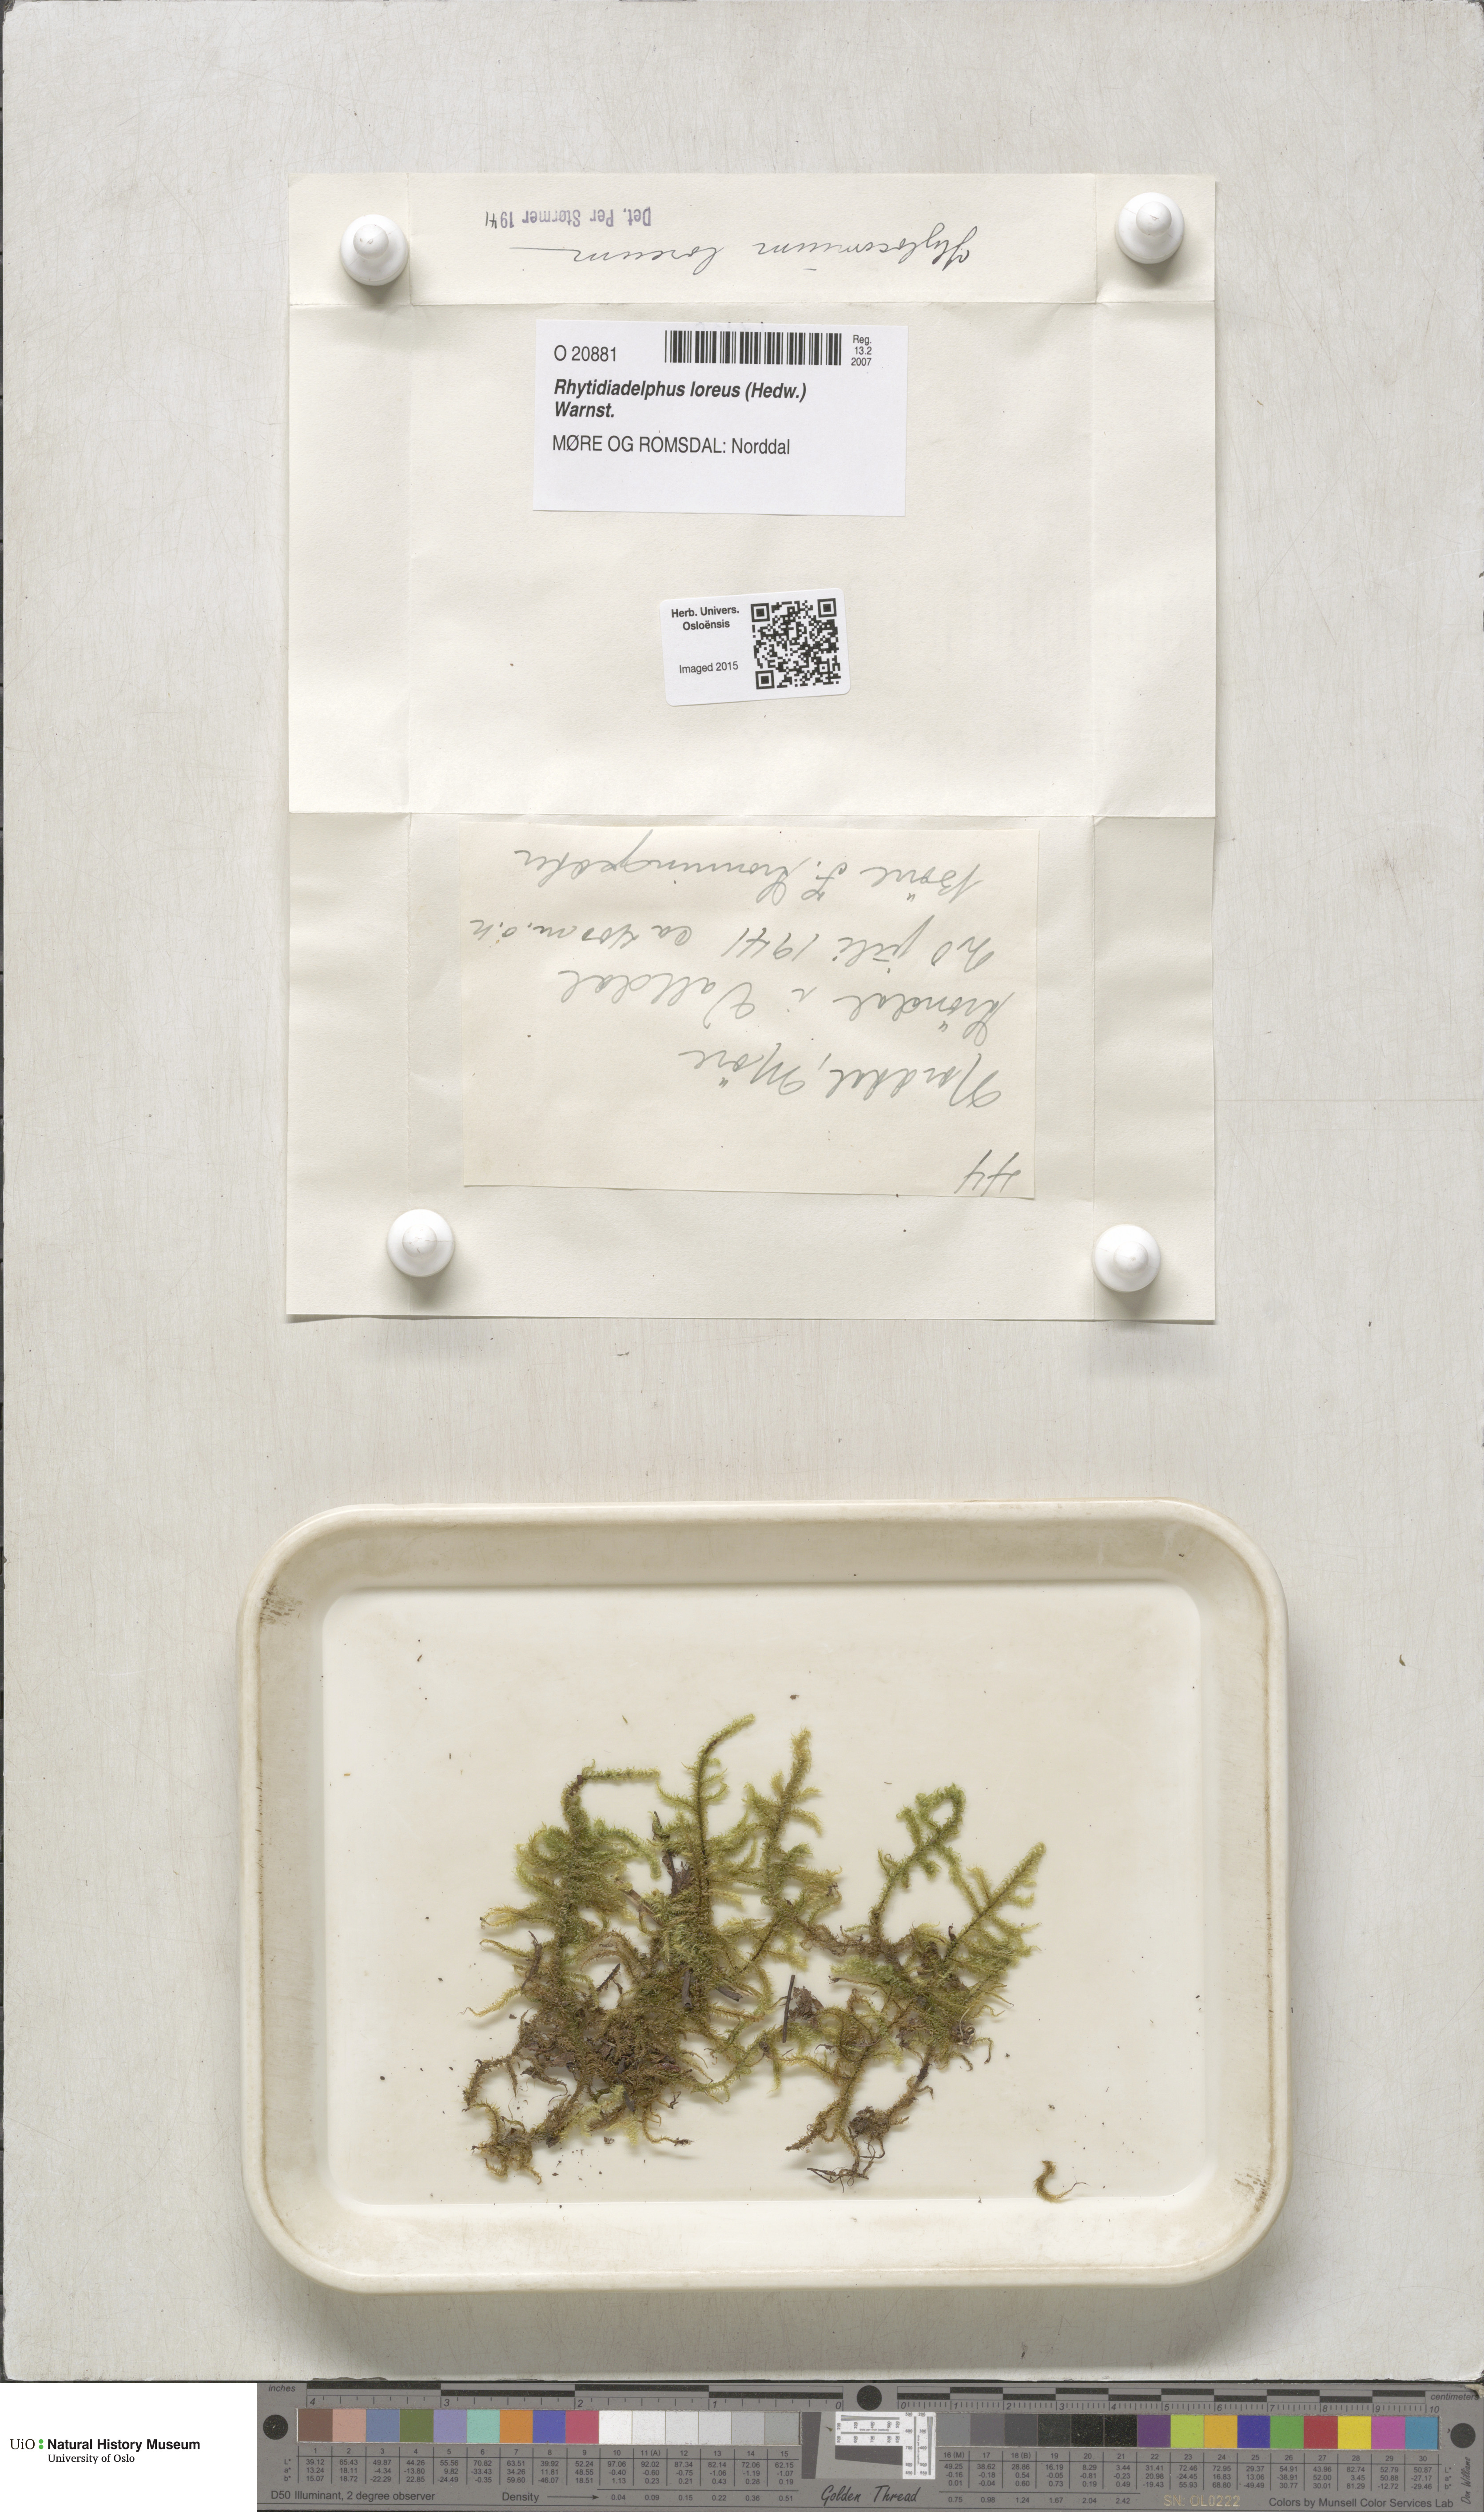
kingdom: Plantae
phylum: Bryophyta
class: Bryopsida
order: Hypnales
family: Hylocomiaceae
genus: Rhytidiadelphus
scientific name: Rhytidiadelphus loreus
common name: Lanky moss
